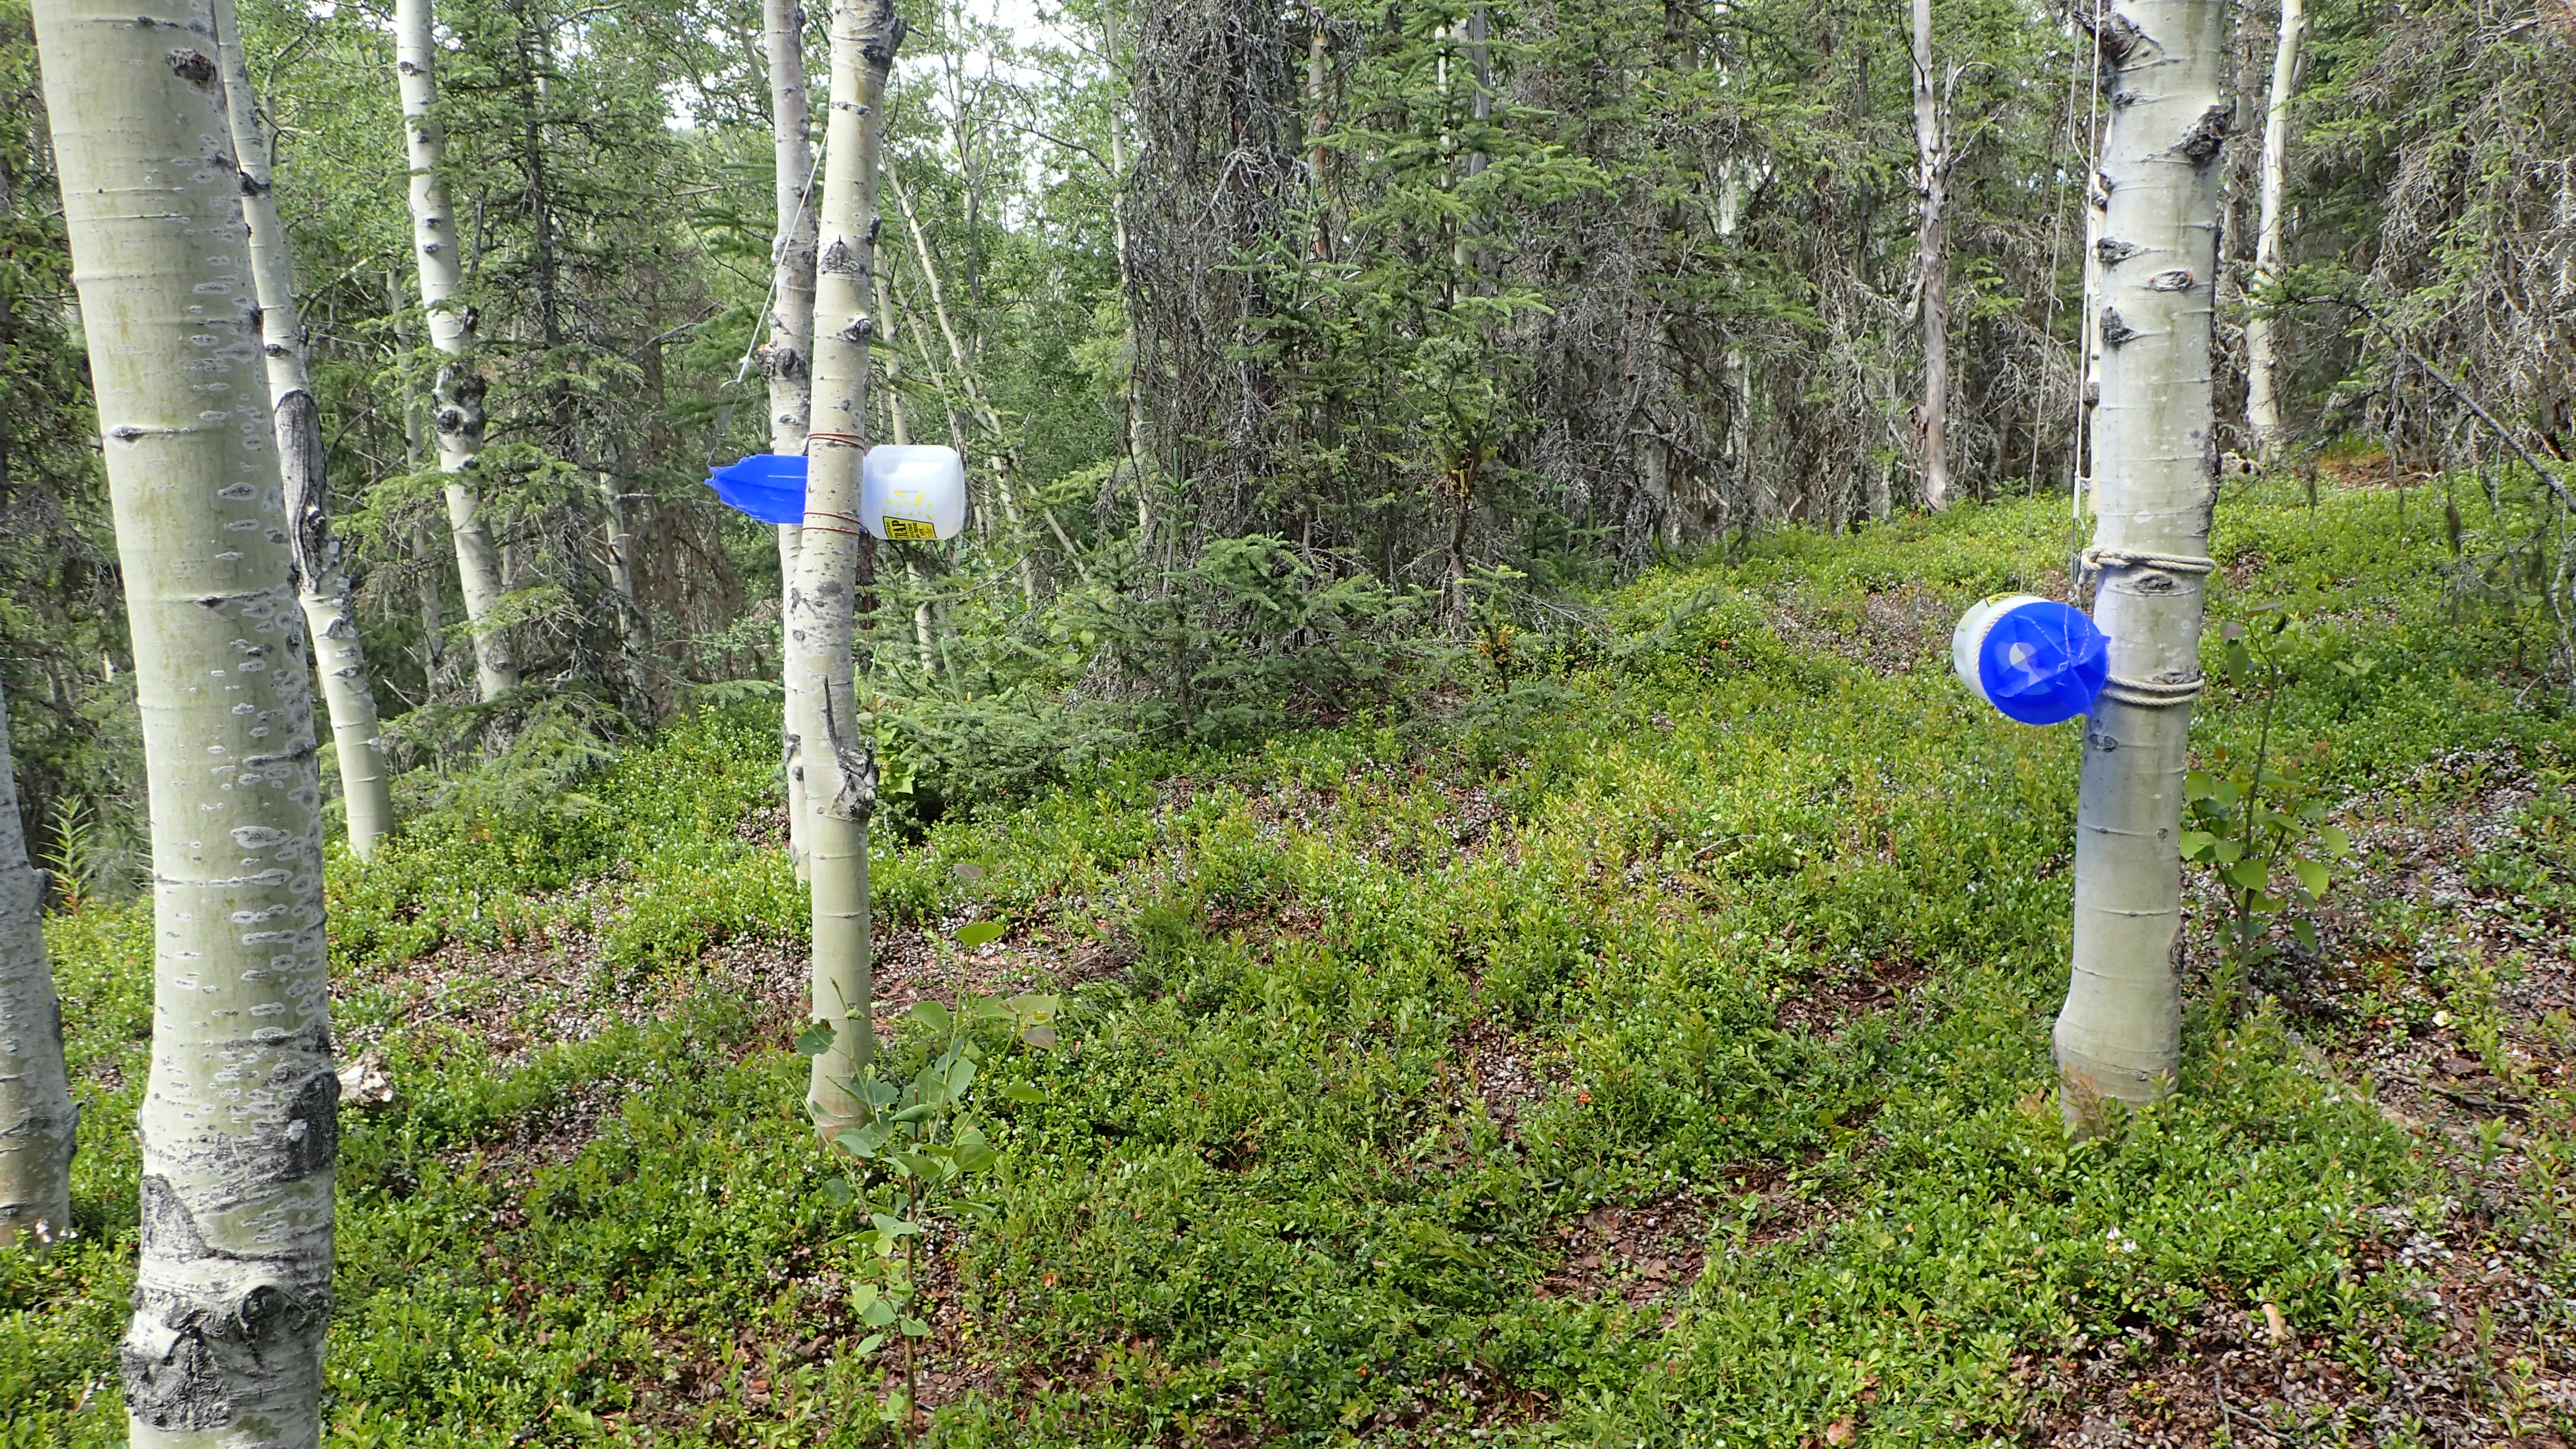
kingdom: Animalia
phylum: Arthropoda
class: Insecta
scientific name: Insecta
